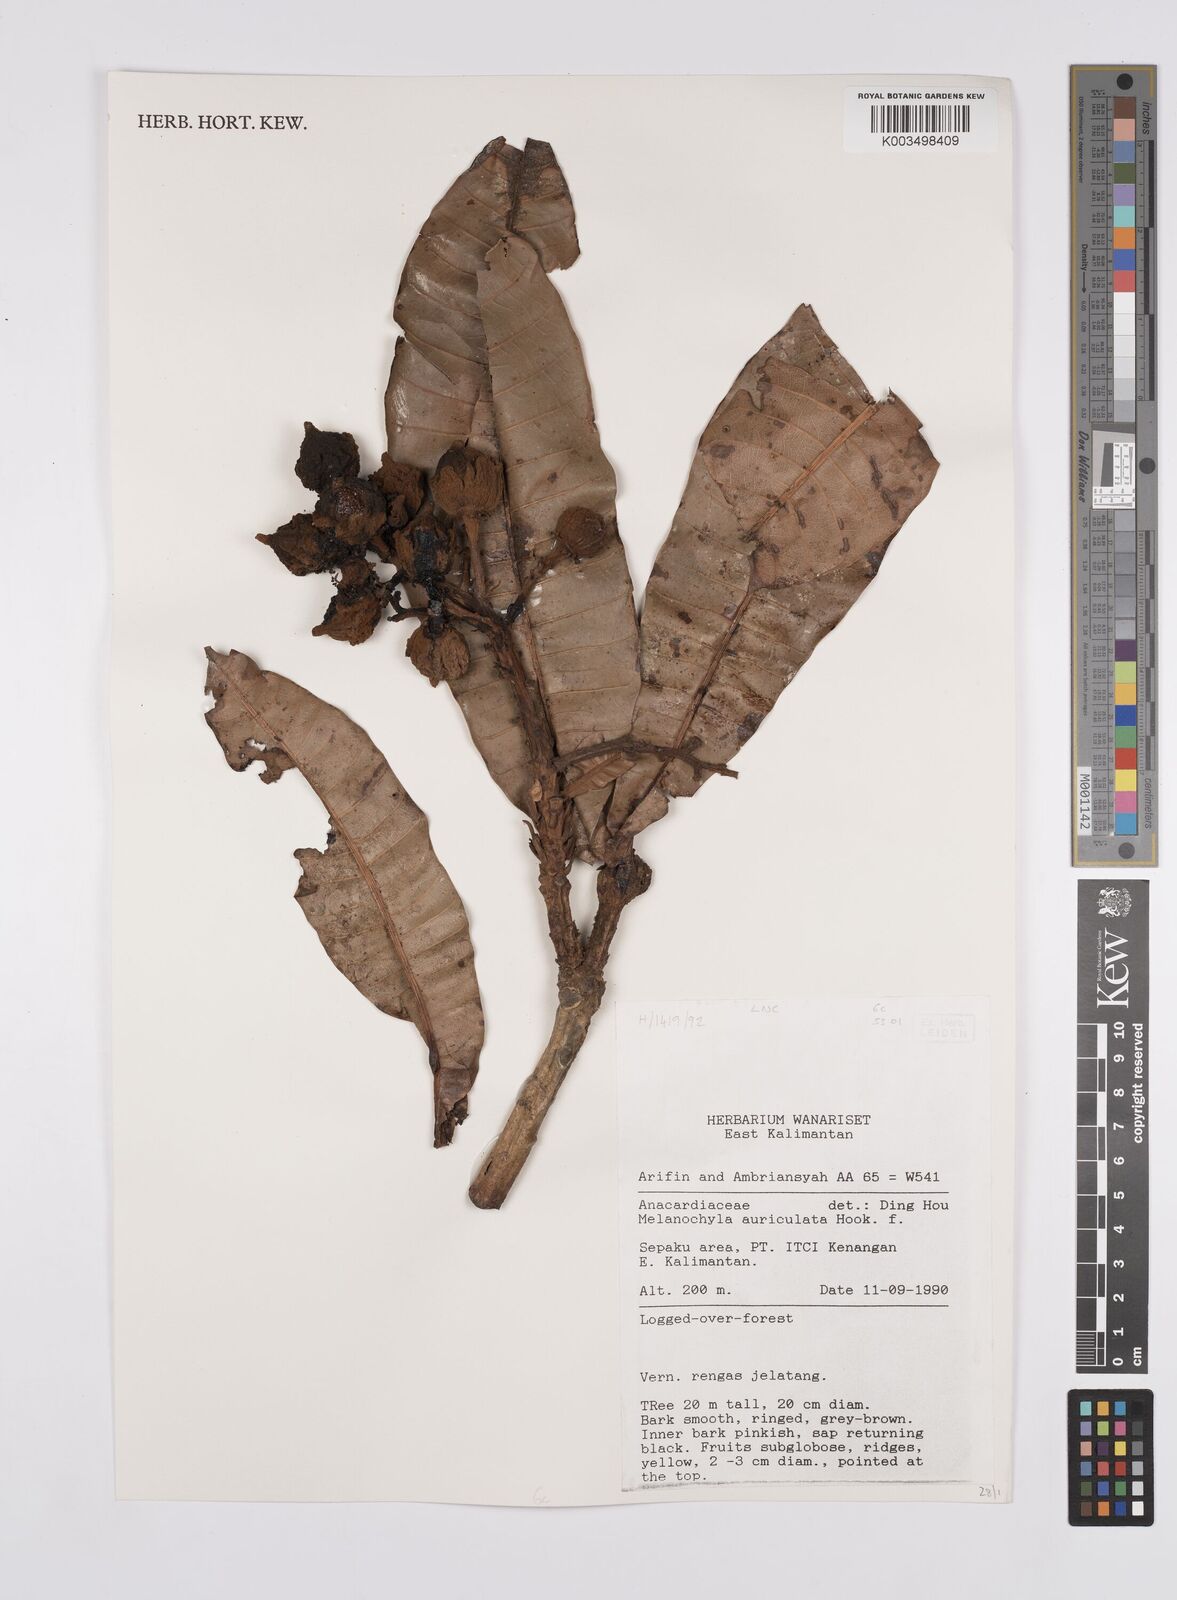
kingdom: Plantae
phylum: Tracheophyta
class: Magnoliopsida
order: Sapindales
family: Anacardiaceae
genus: Melanochyla
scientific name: Melanochyla auriculata
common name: Swamp rengas
